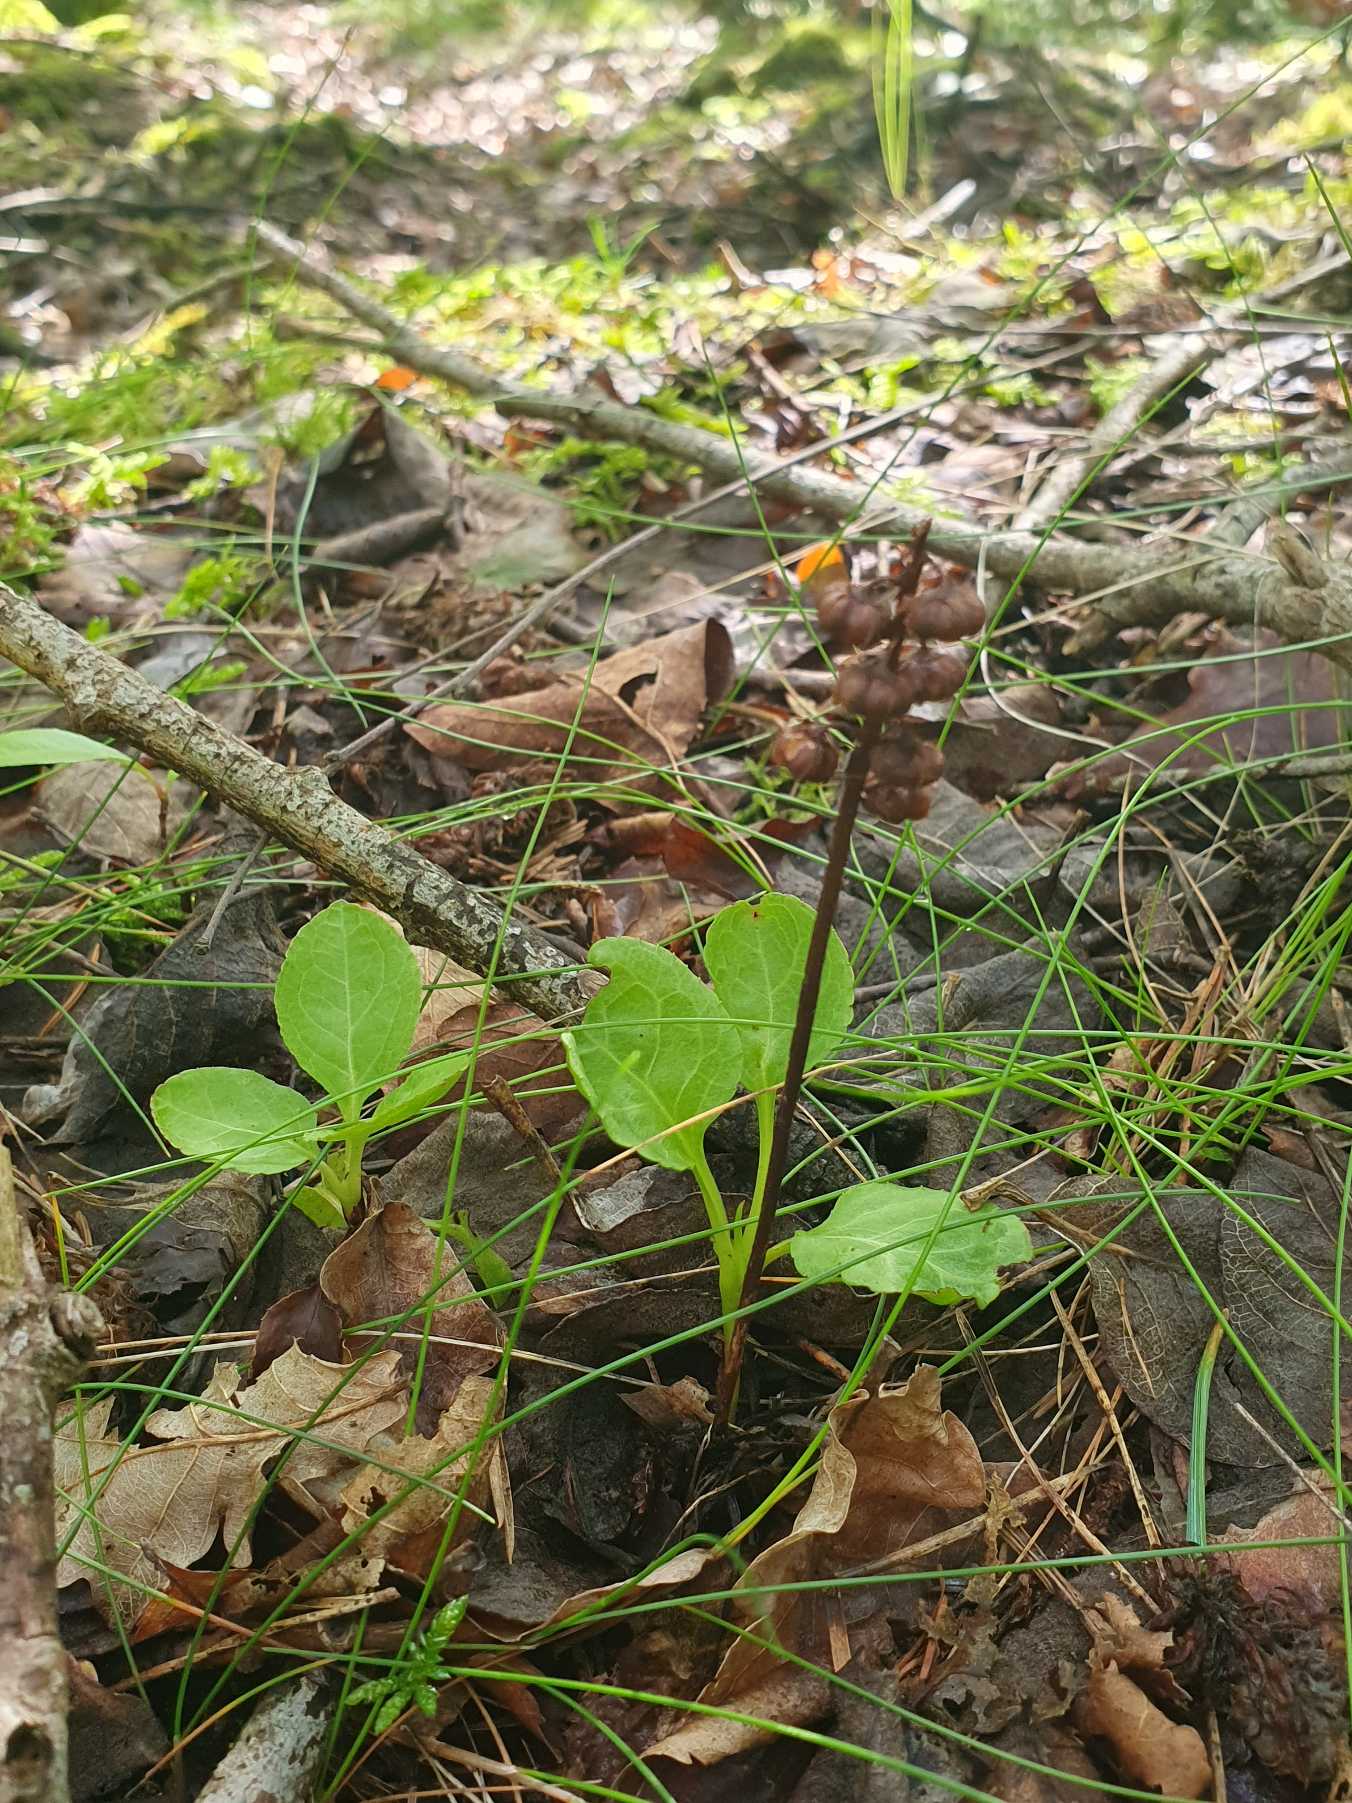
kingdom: Plantae
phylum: Tracheophyta
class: Magnoliopsida
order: Ericales
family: Ericaceae
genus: Pyrola
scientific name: Pyrola minor
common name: Liden vintergrøn
